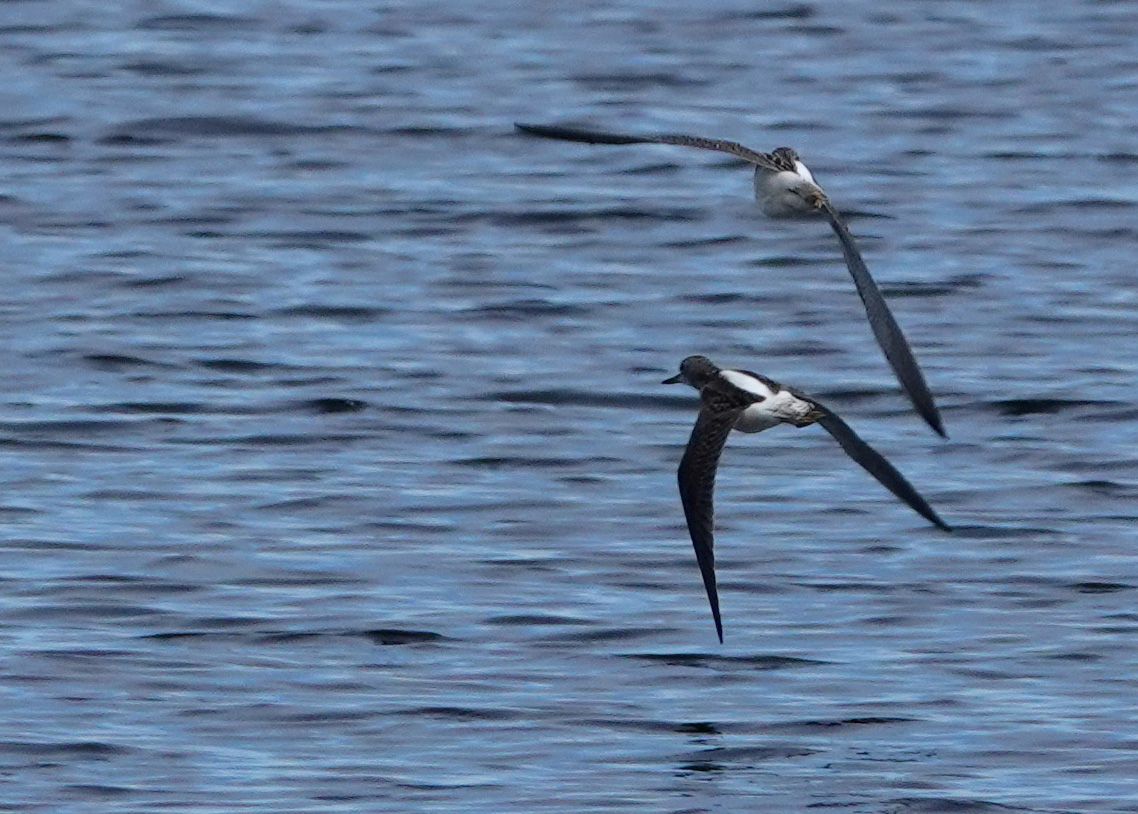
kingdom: Animalia
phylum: Chordata
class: Aves
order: Charadriiformes
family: Scolopacidae
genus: Tringa
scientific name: Tringa nebularia
